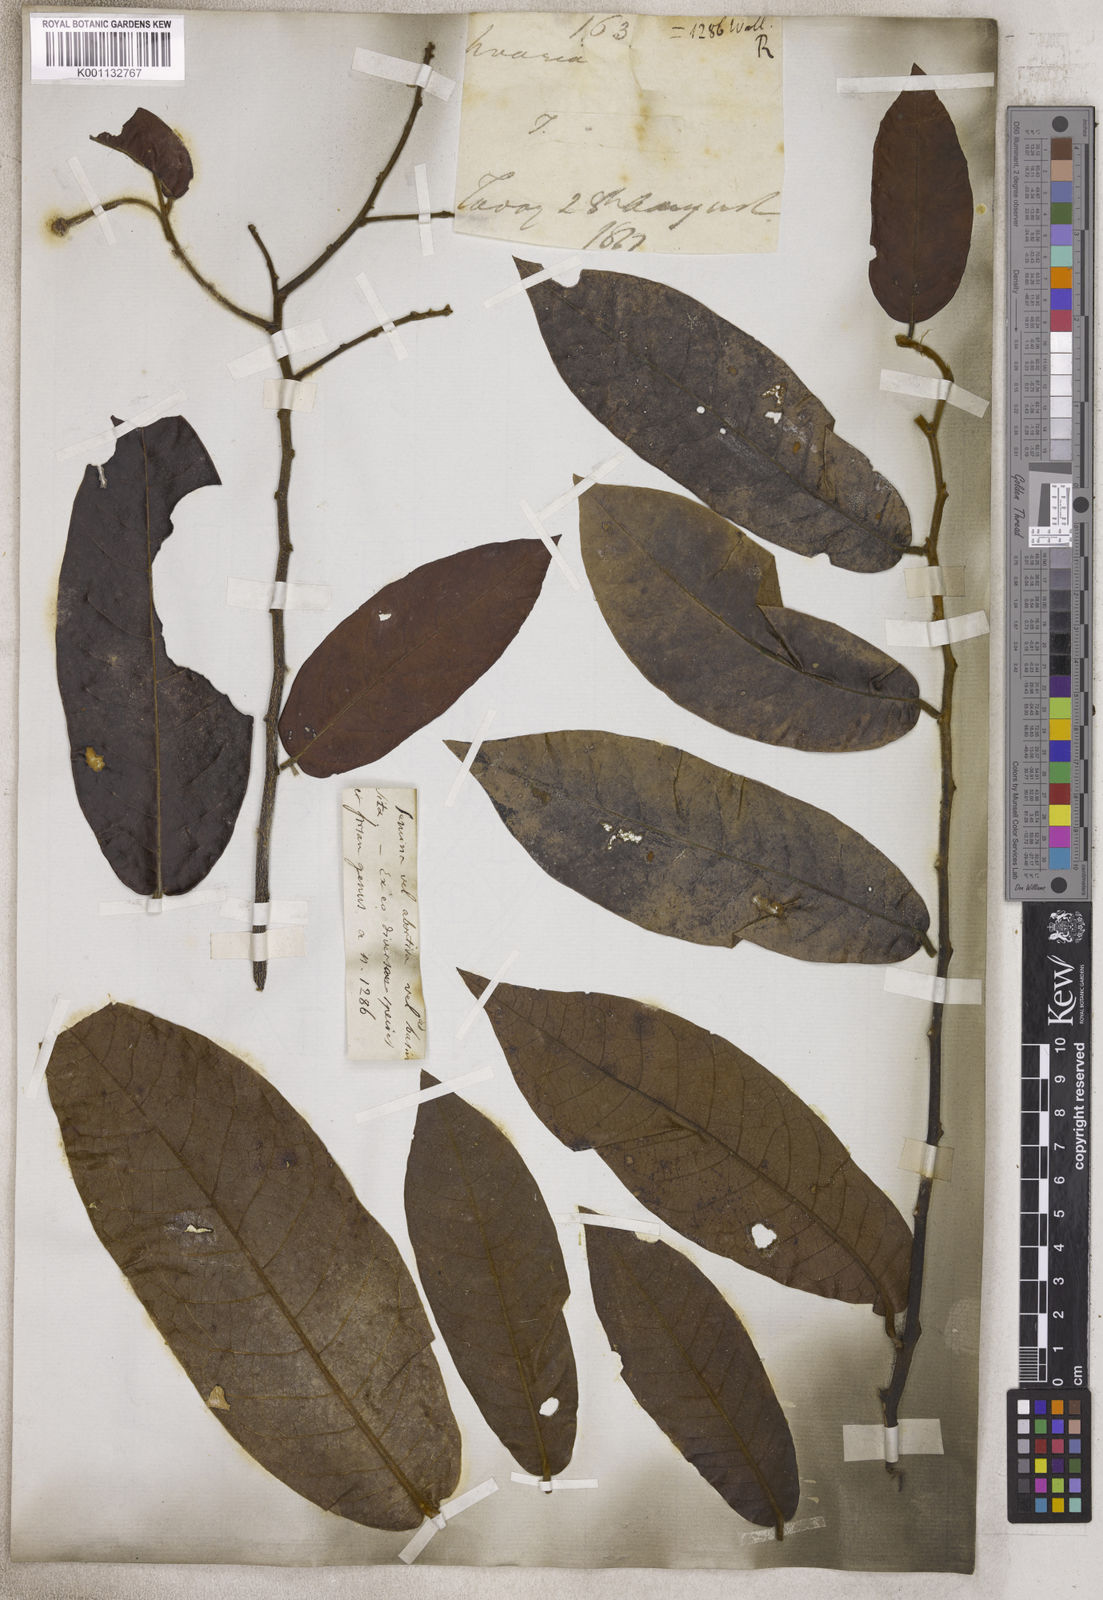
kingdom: Plantae
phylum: Tracheophyta
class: Magnoliopsida
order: Magnoliales
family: Annonaceae
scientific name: Annonaceae
